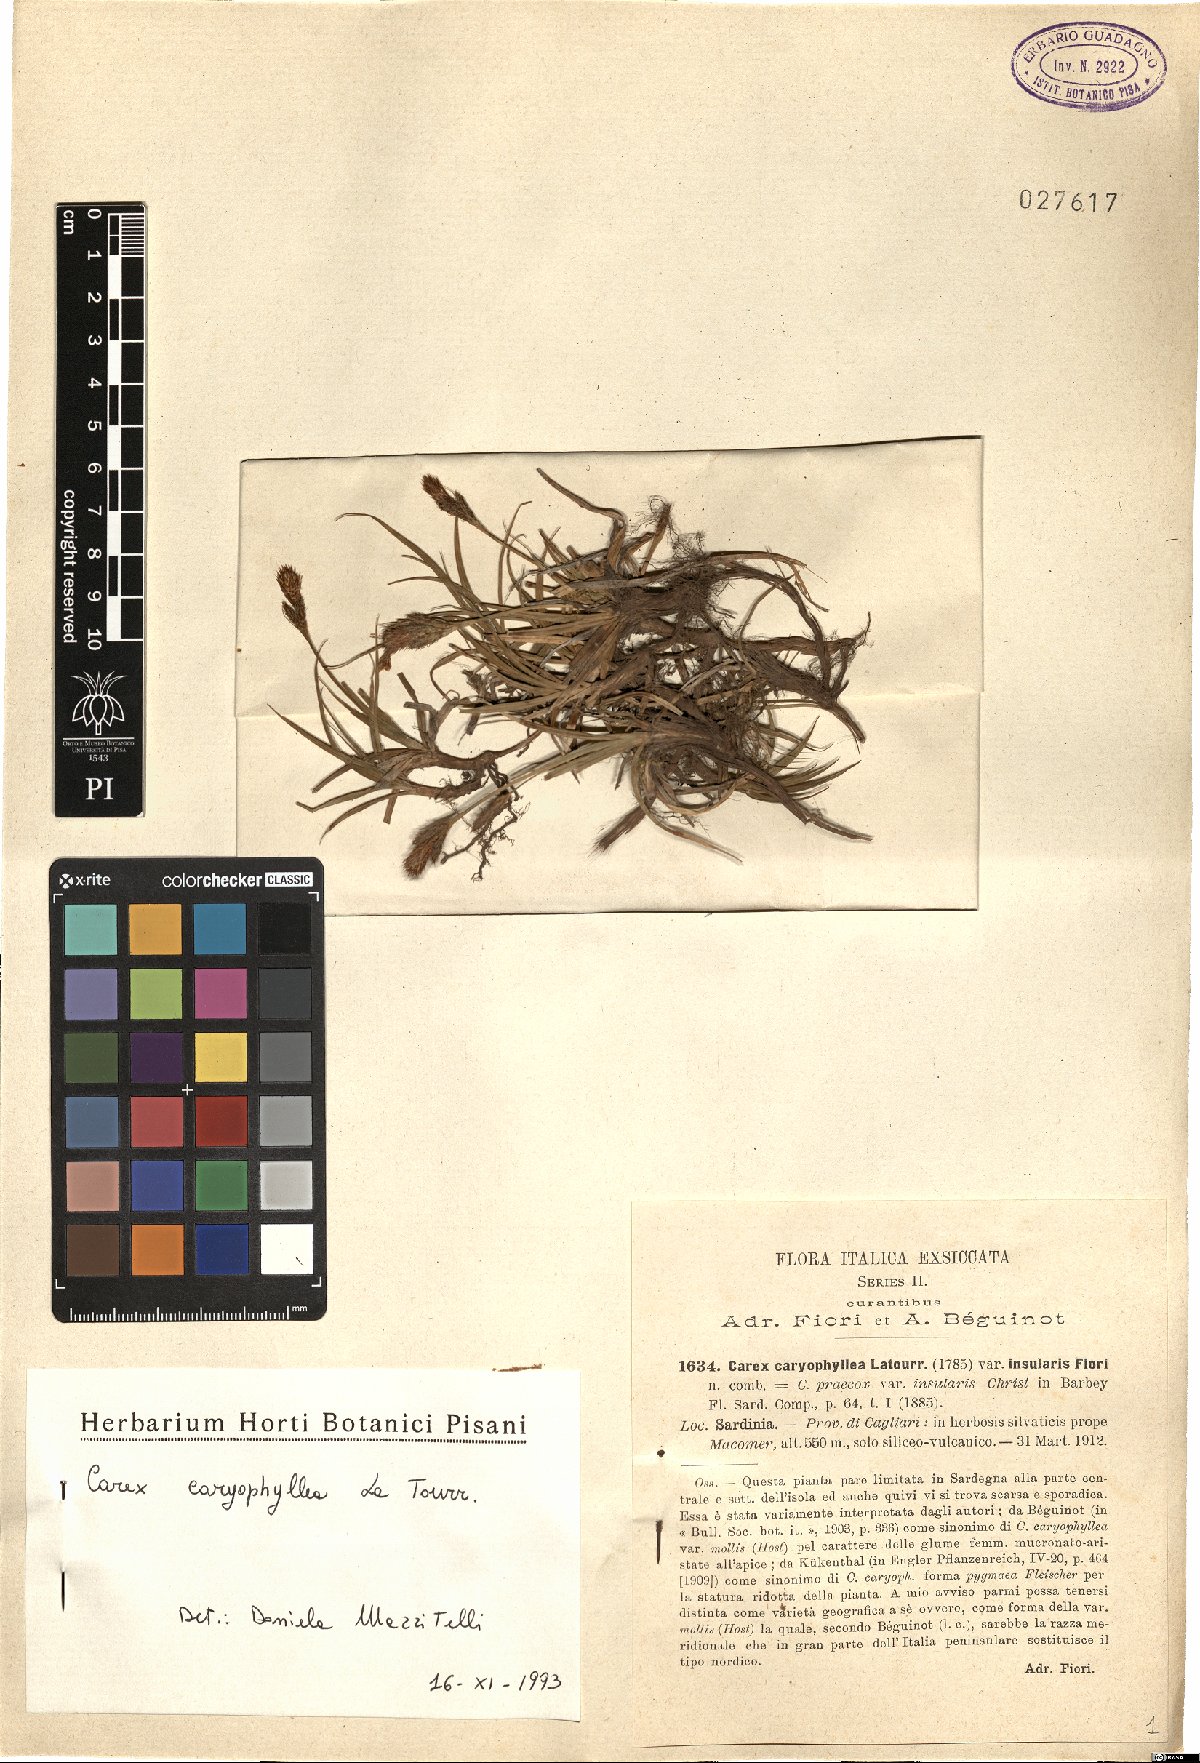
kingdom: Plantae
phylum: Tracheophyta
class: Liliopsida
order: Poales
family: Cyperaceae
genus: Carex
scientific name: Carex caryophyllea
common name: Spring sedge
